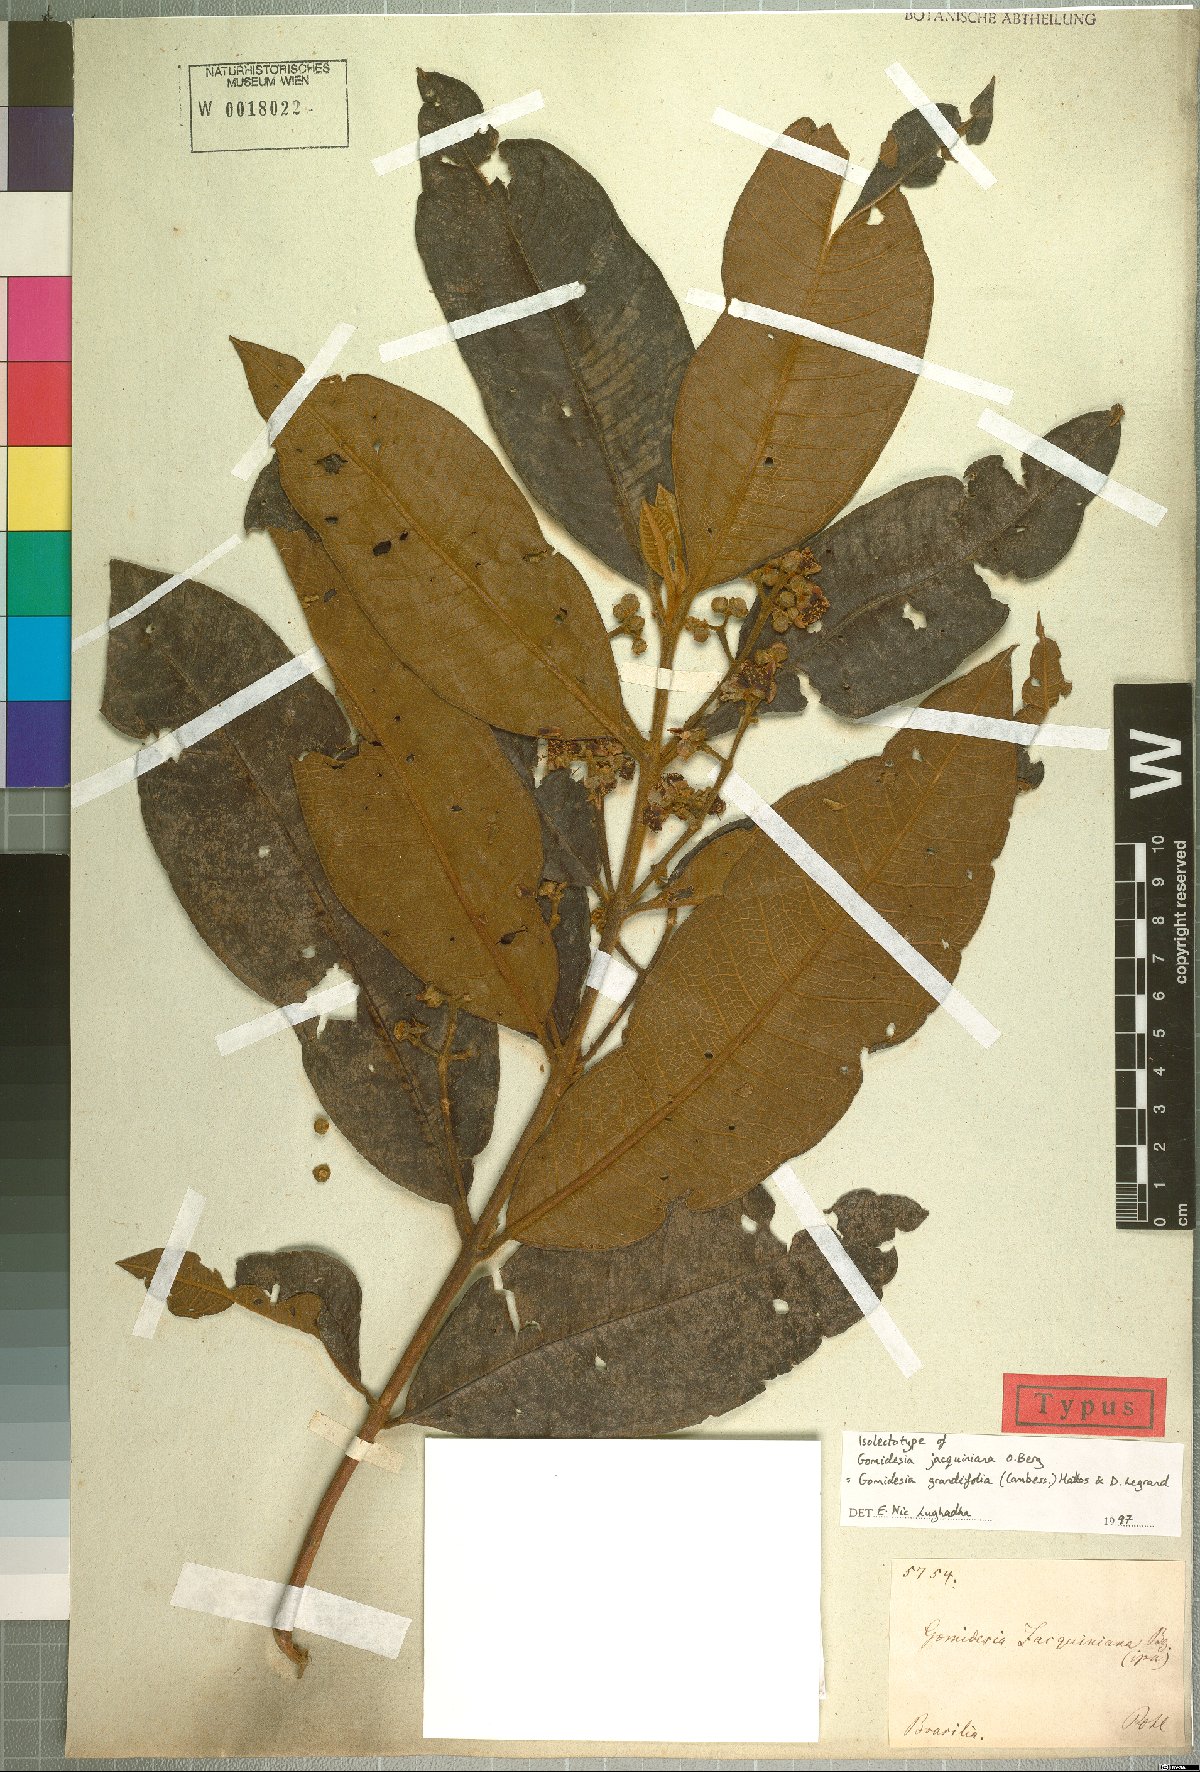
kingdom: Plantae
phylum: Tracheophyta
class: Magnoliopsida
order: Myrtales
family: Myrtaceae
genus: Myrcia
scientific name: Myrcia grandifolia
